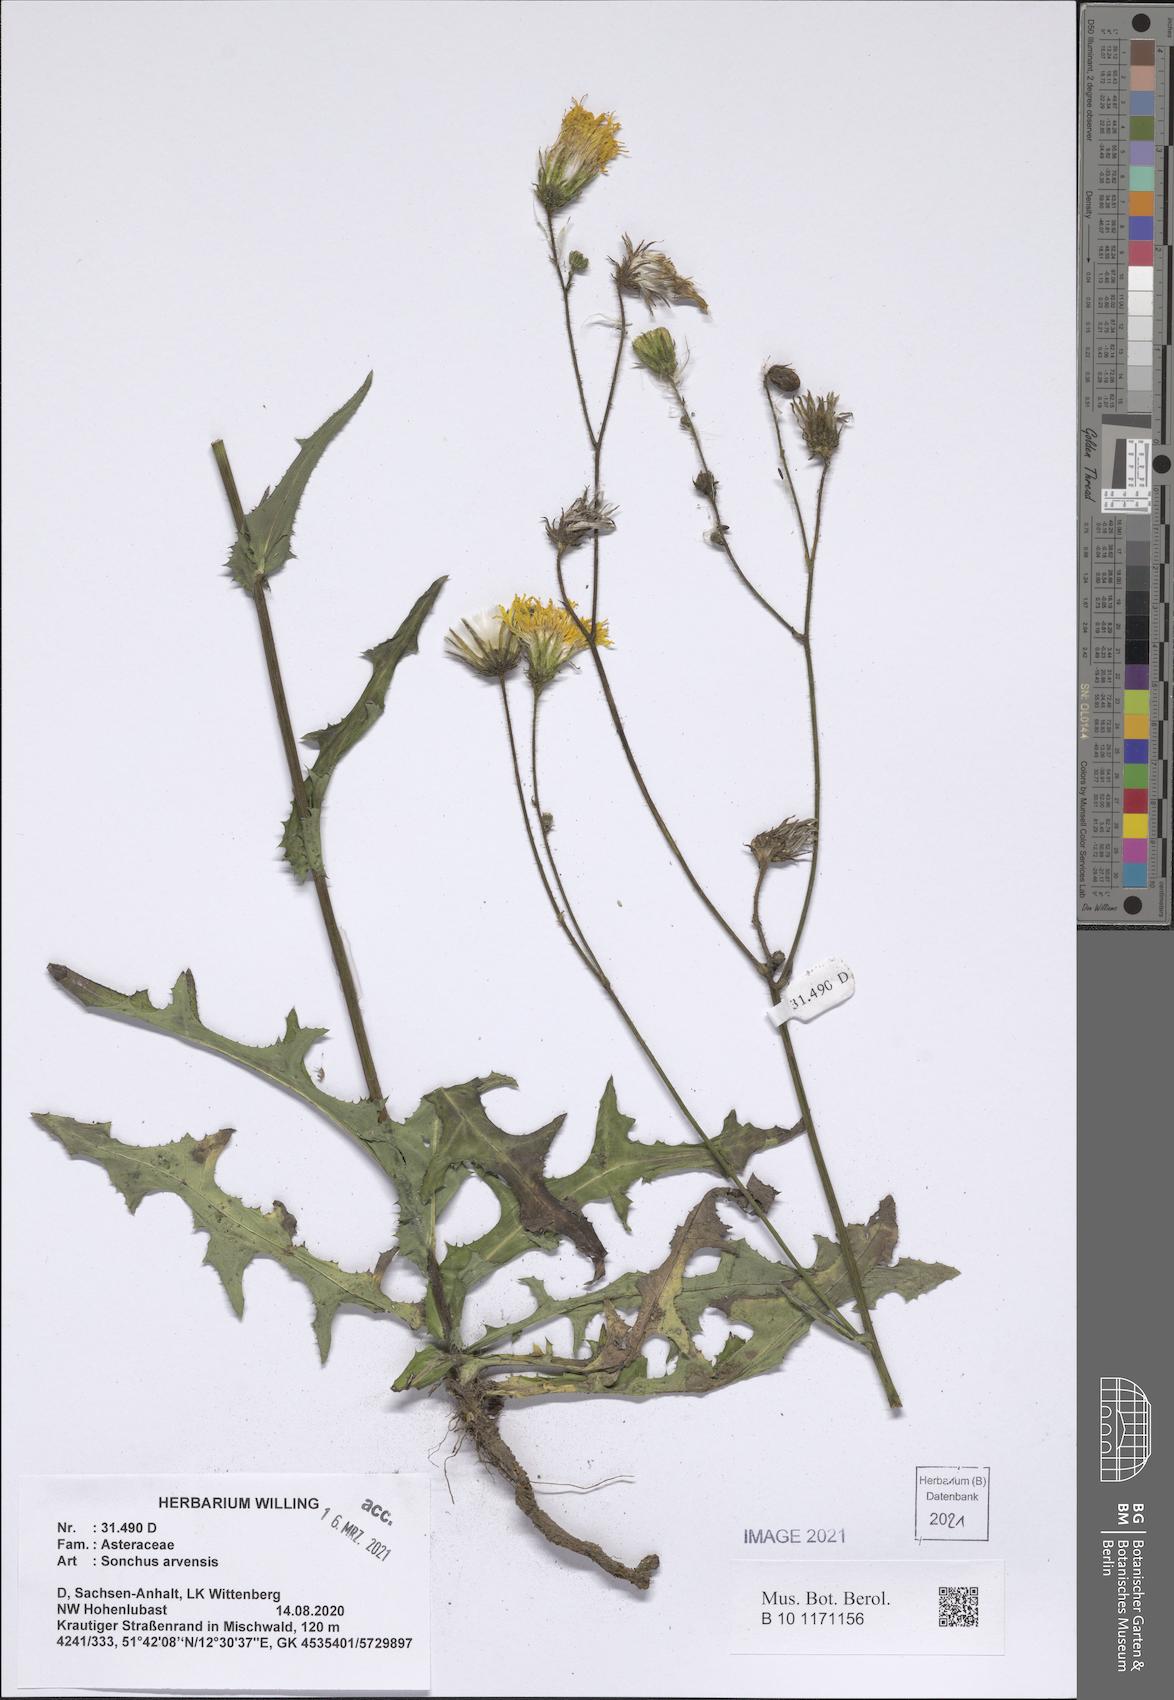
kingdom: Plantae
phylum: Tracheophyta
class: Magnoliopsida
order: Asterales
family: Asteraceae
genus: Sonchus
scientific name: Sonchus arvensis
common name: Perennial sow-thistle
